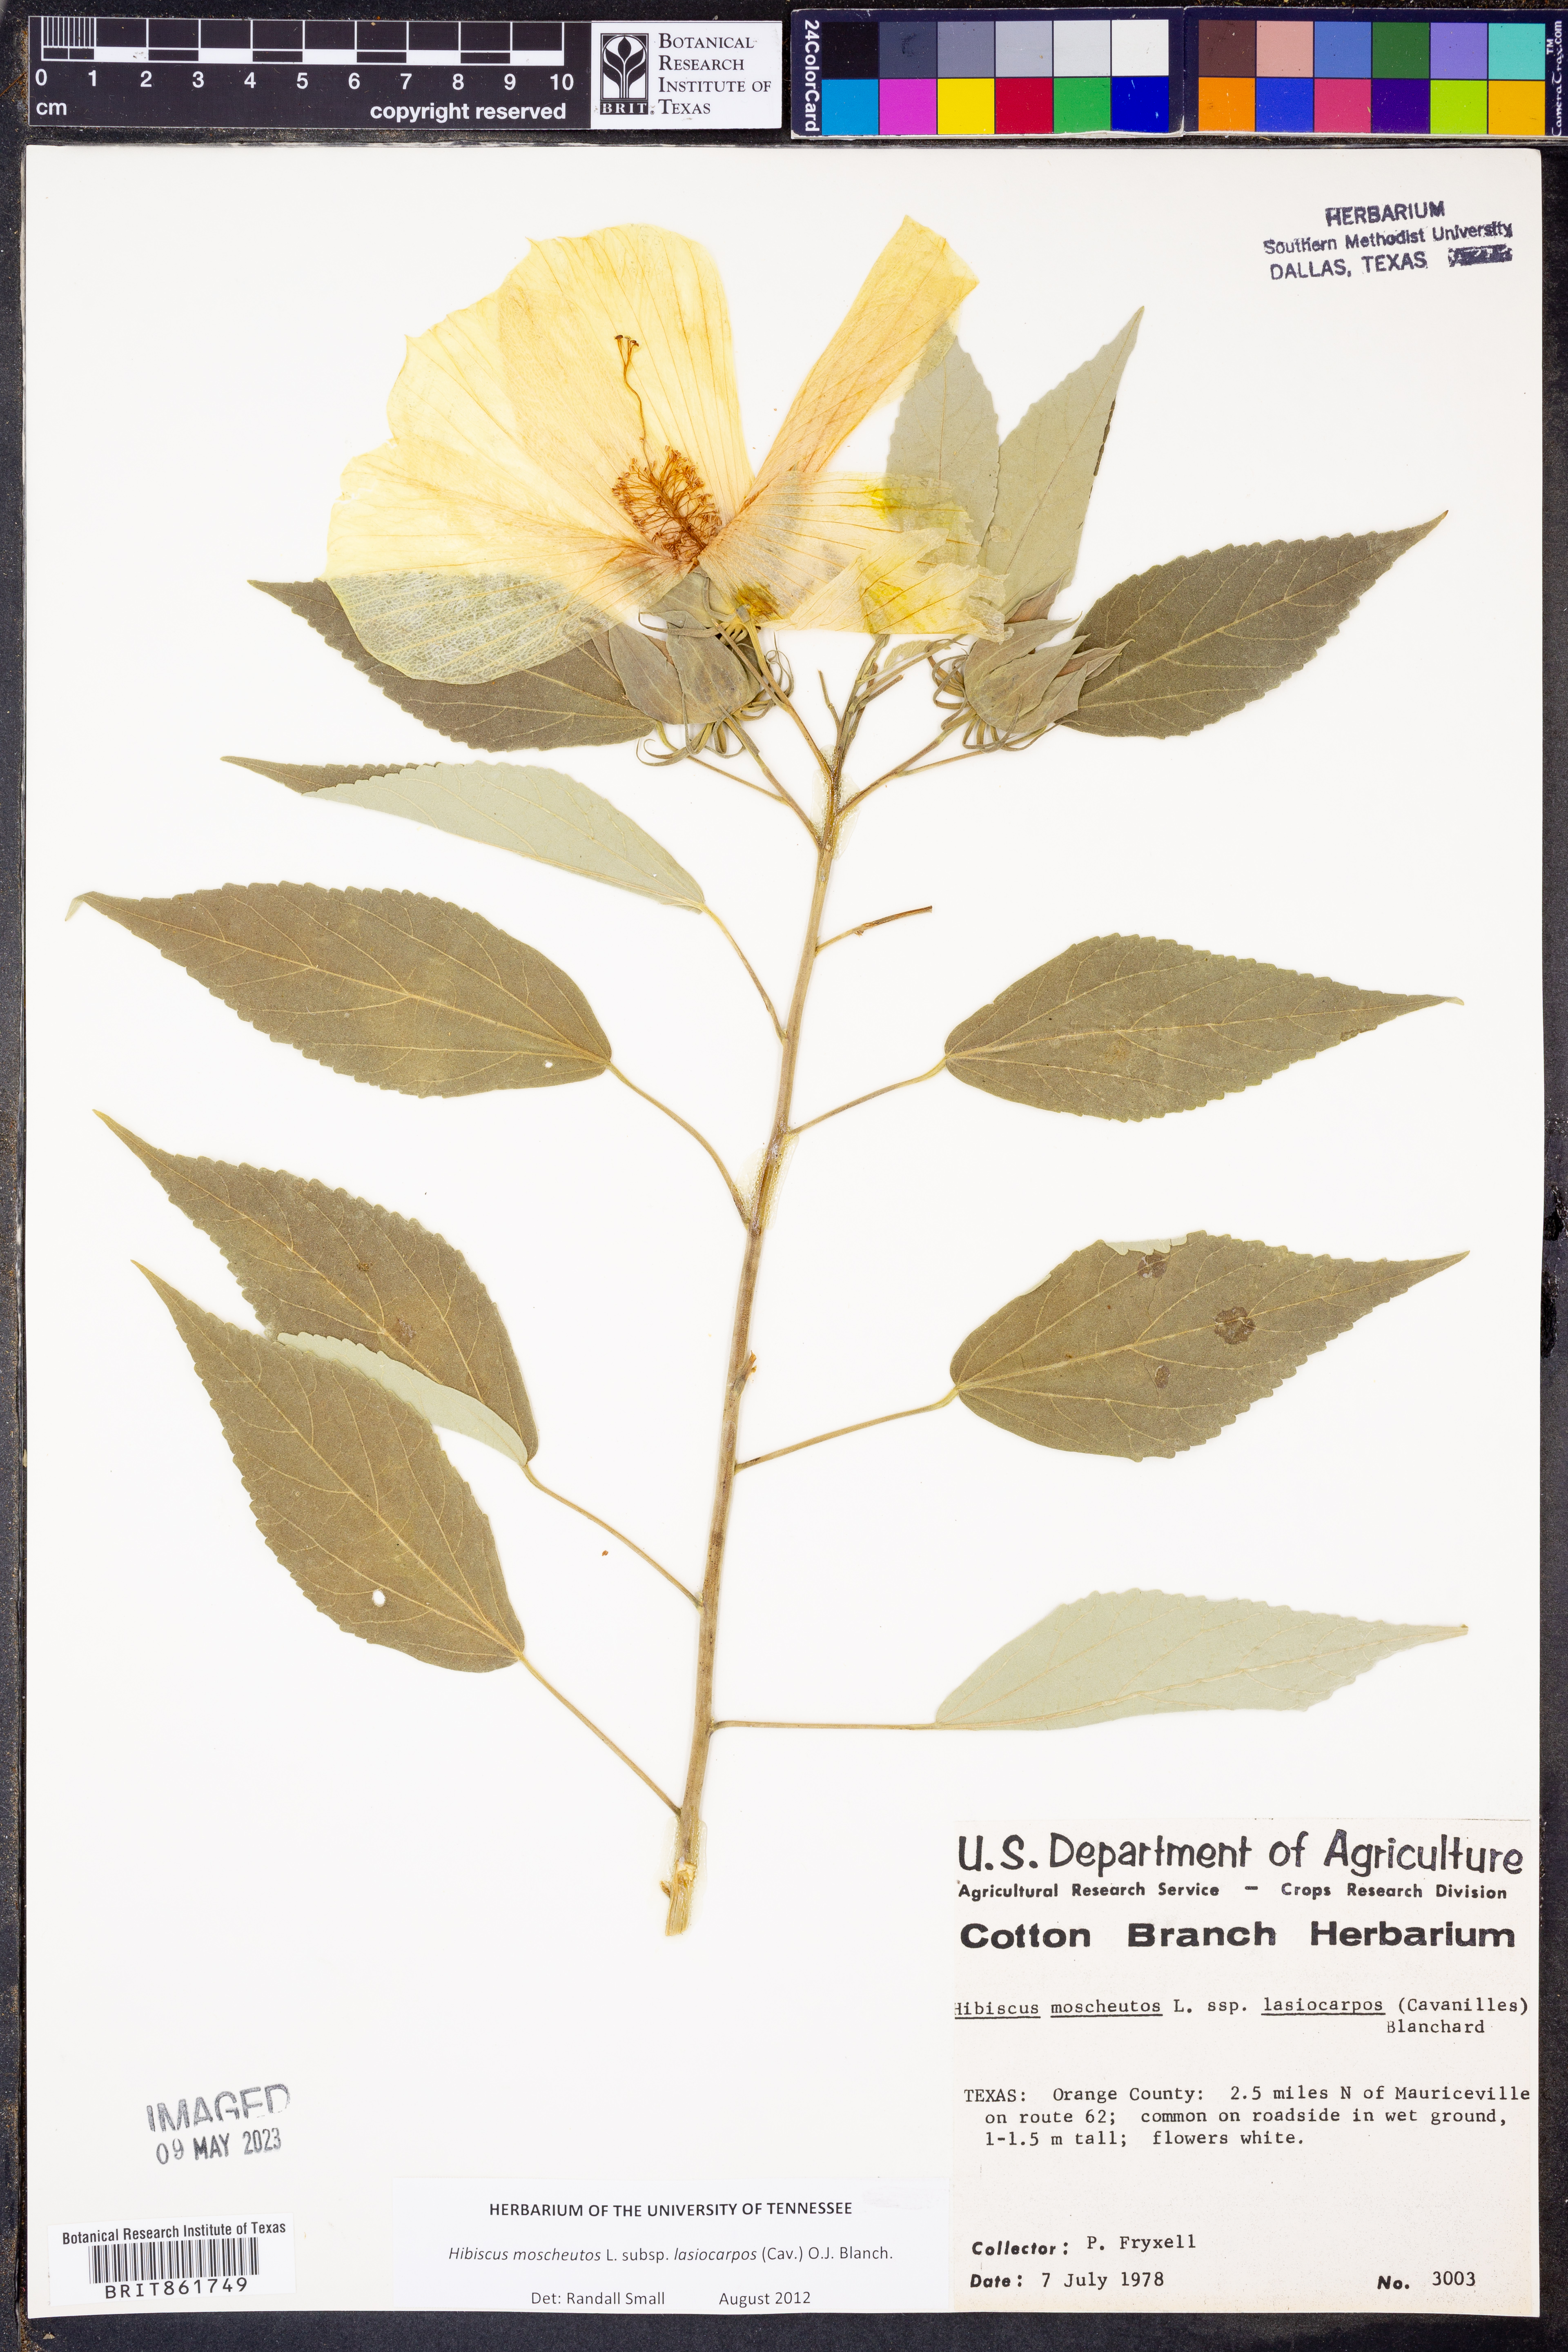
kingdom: Plantae
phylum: Tracheophyta
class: Magnoliopsida
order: Malvales
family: Malvaceae
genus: Hibiscus
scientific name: Hibiscus moscheutos
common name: Common rose-mallow
